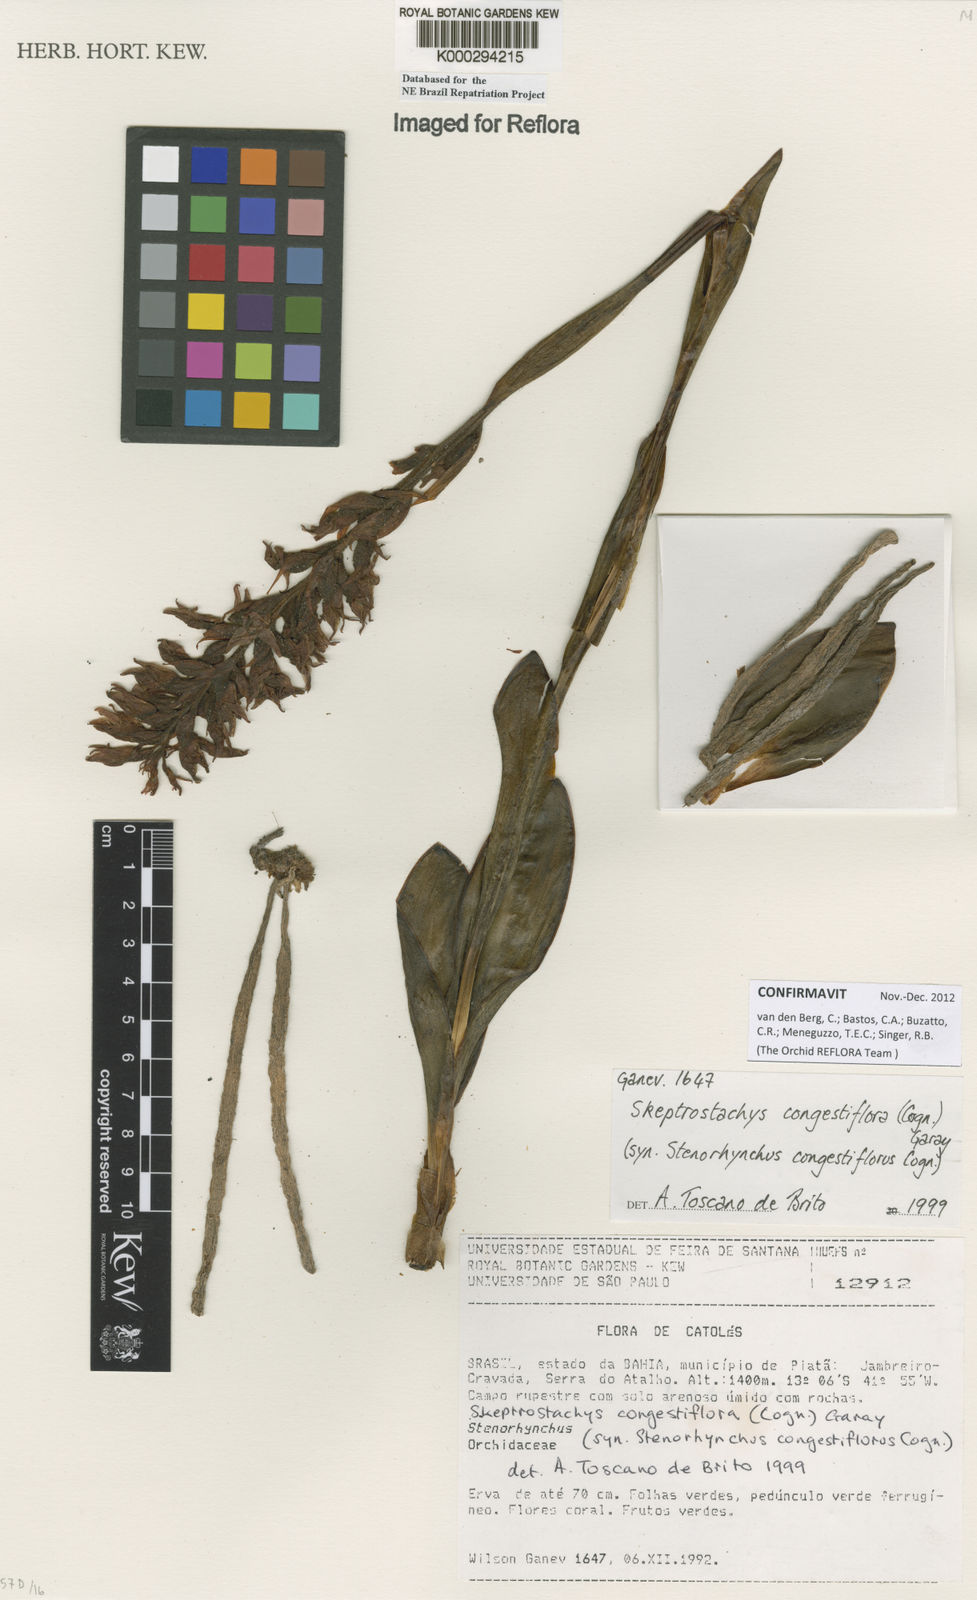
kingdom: Plantae
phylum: Tracheophyta
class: Liliopsida
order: Asparagales
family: Orchidaceae
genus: Skeptrostachys
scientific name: Skeptrostachys congestiflora
